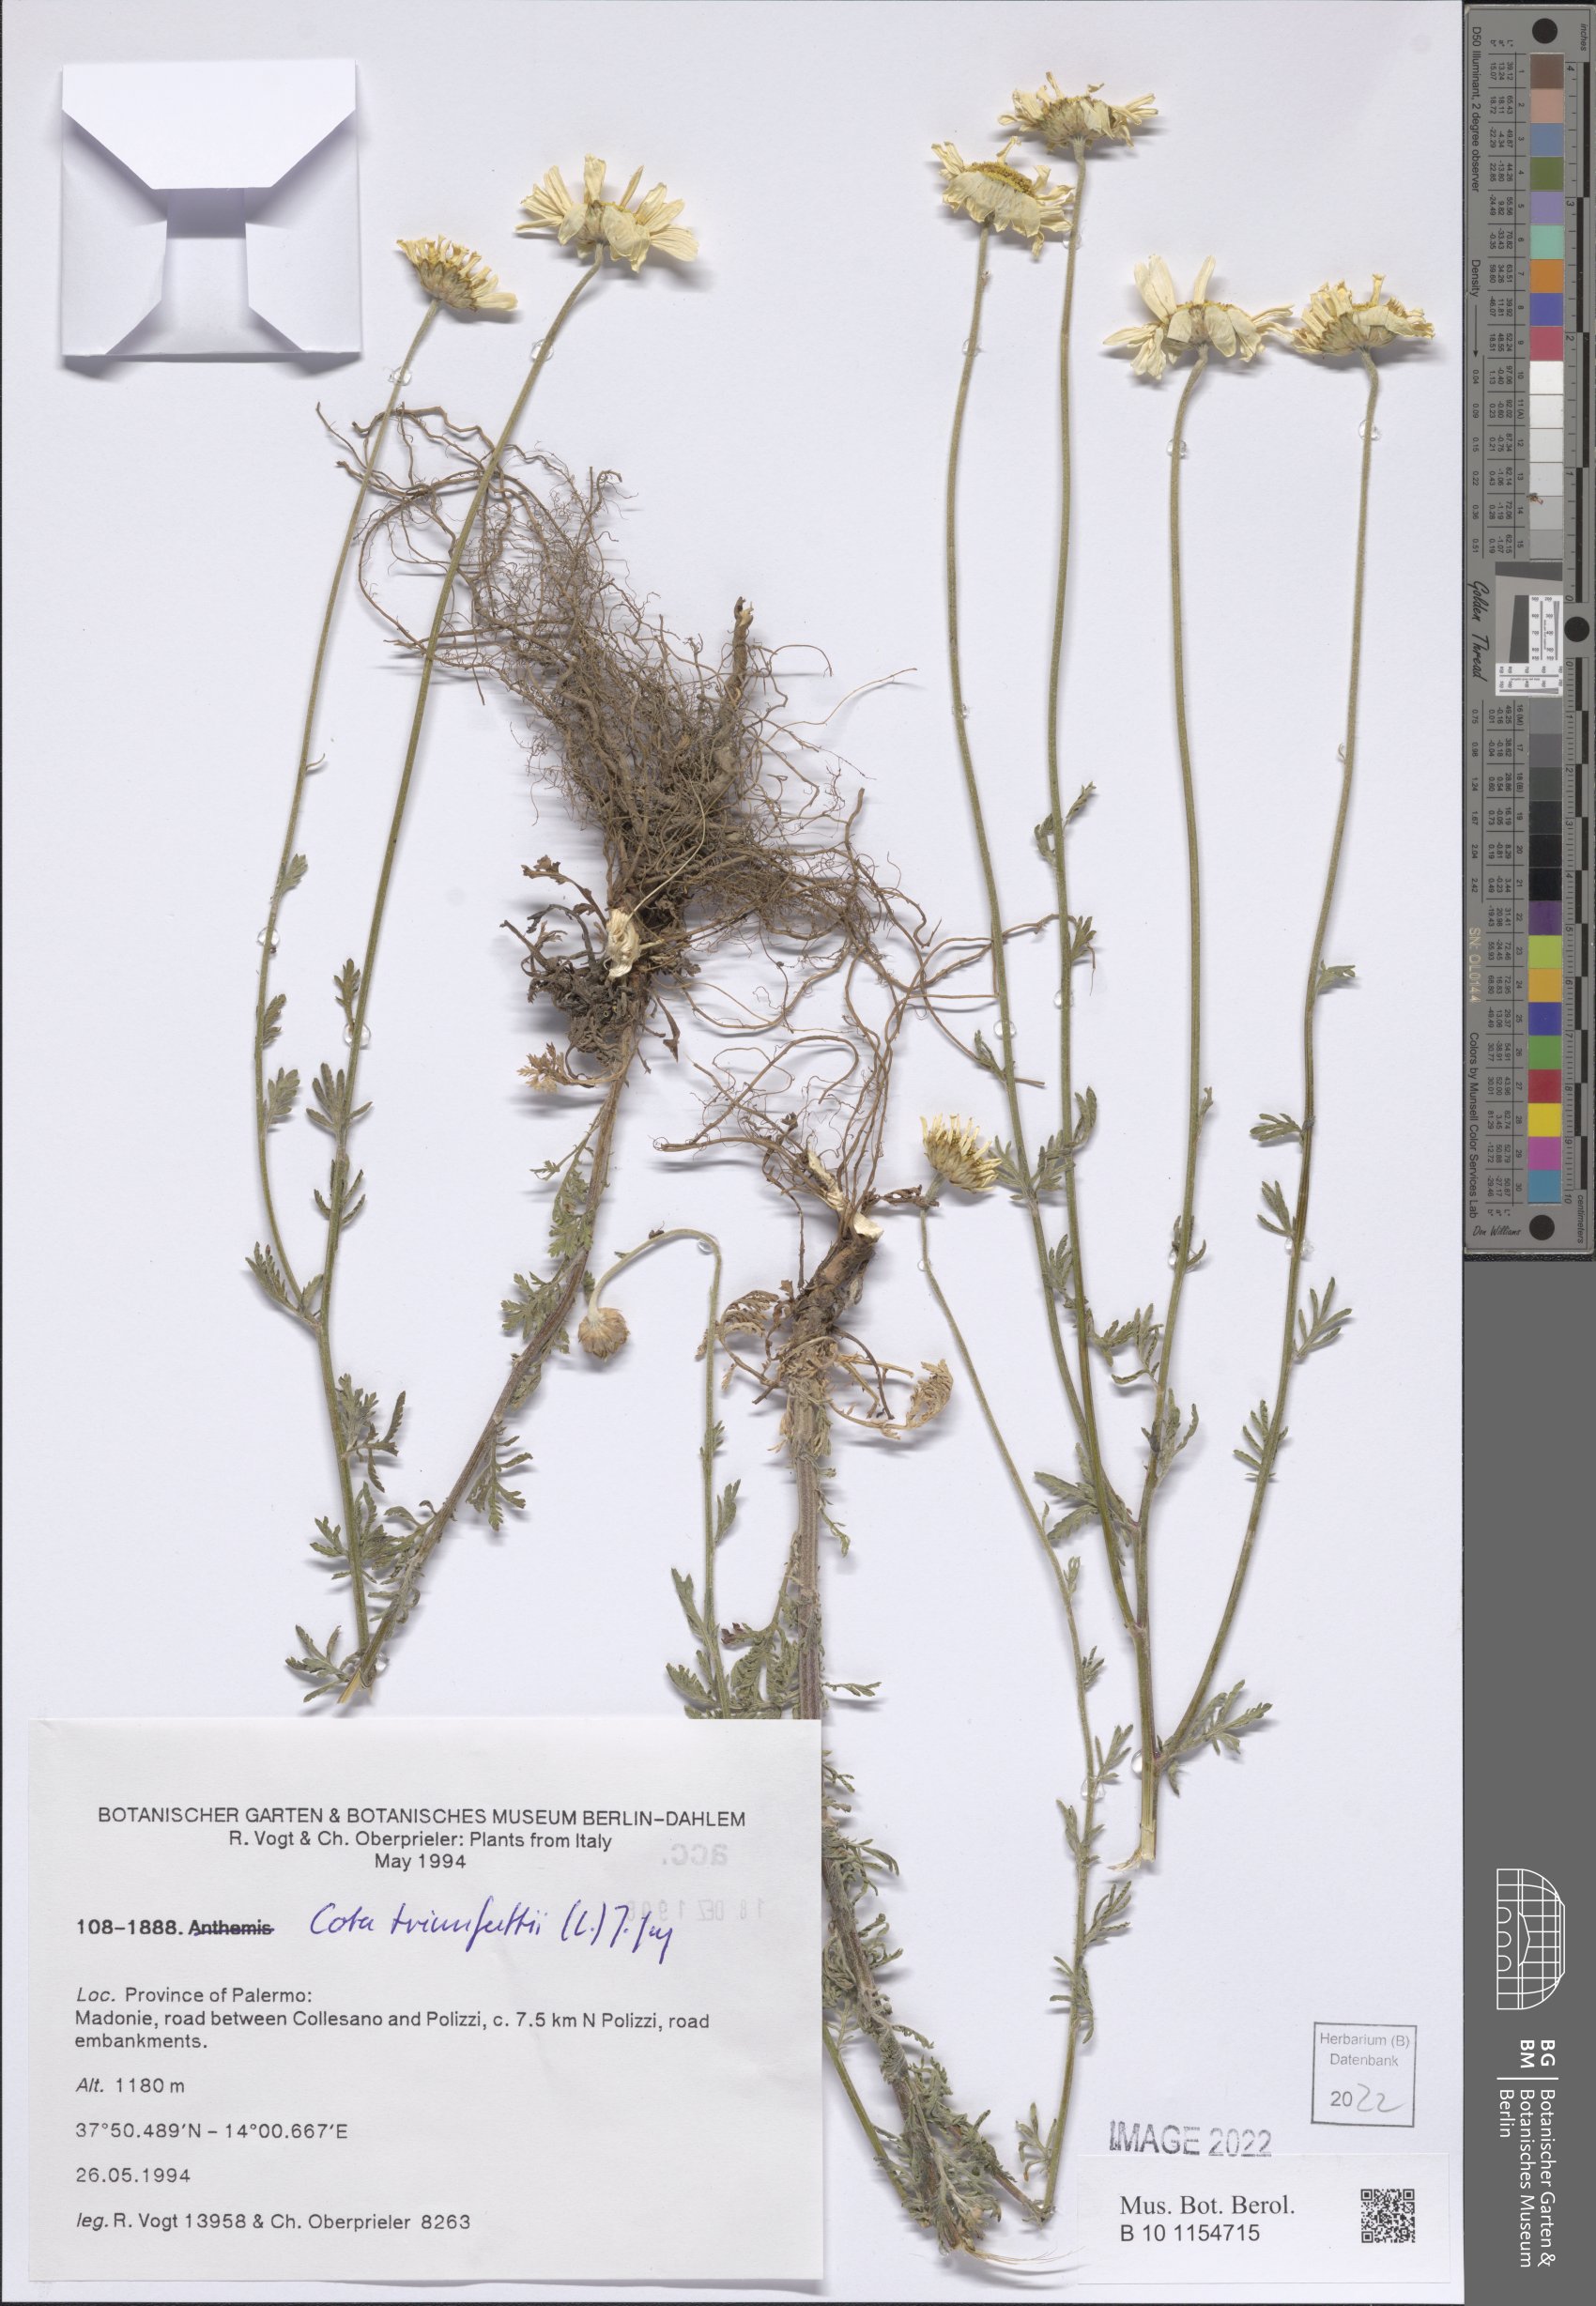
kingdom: Plantae
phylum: Tracheophyta
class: Magnoliopsida
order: Asterales
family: Asteraceae
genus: Cota
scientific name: Cota triumfetti
